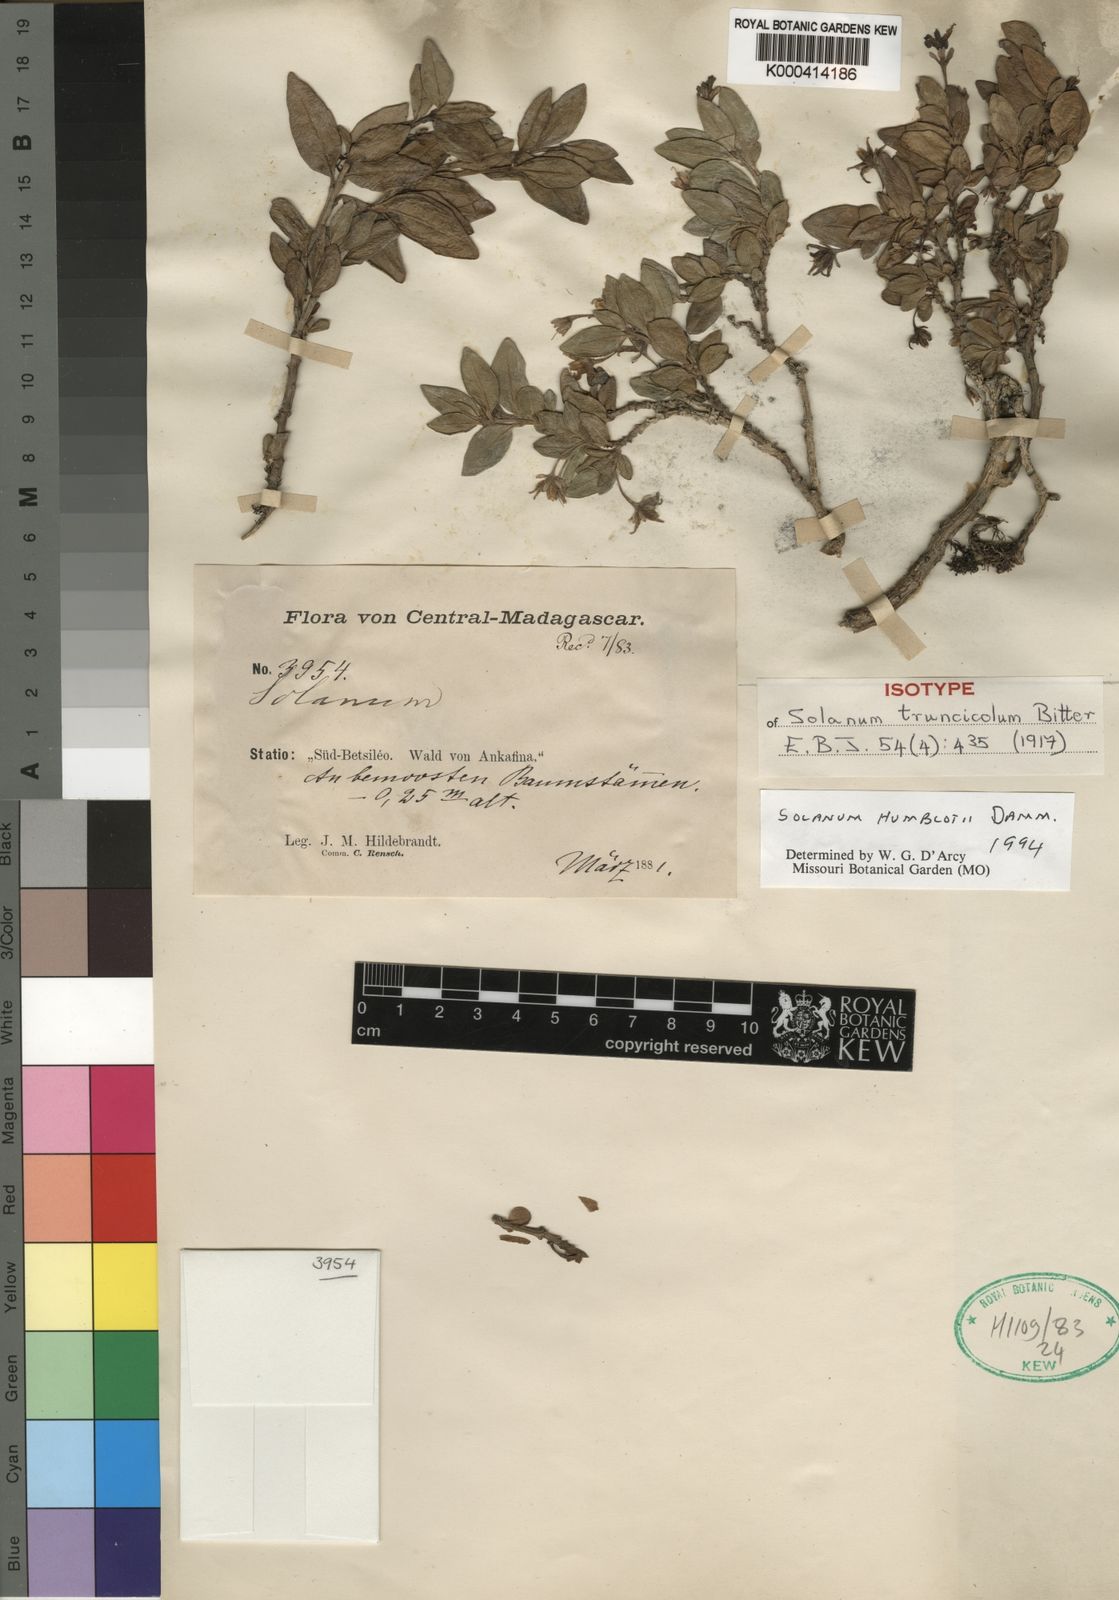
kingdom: Plantae
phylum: Tracheophyta
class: Magnoliopsida
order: Solanales
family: Solanaceae
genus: Solanum
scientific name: Solanum humblotii
